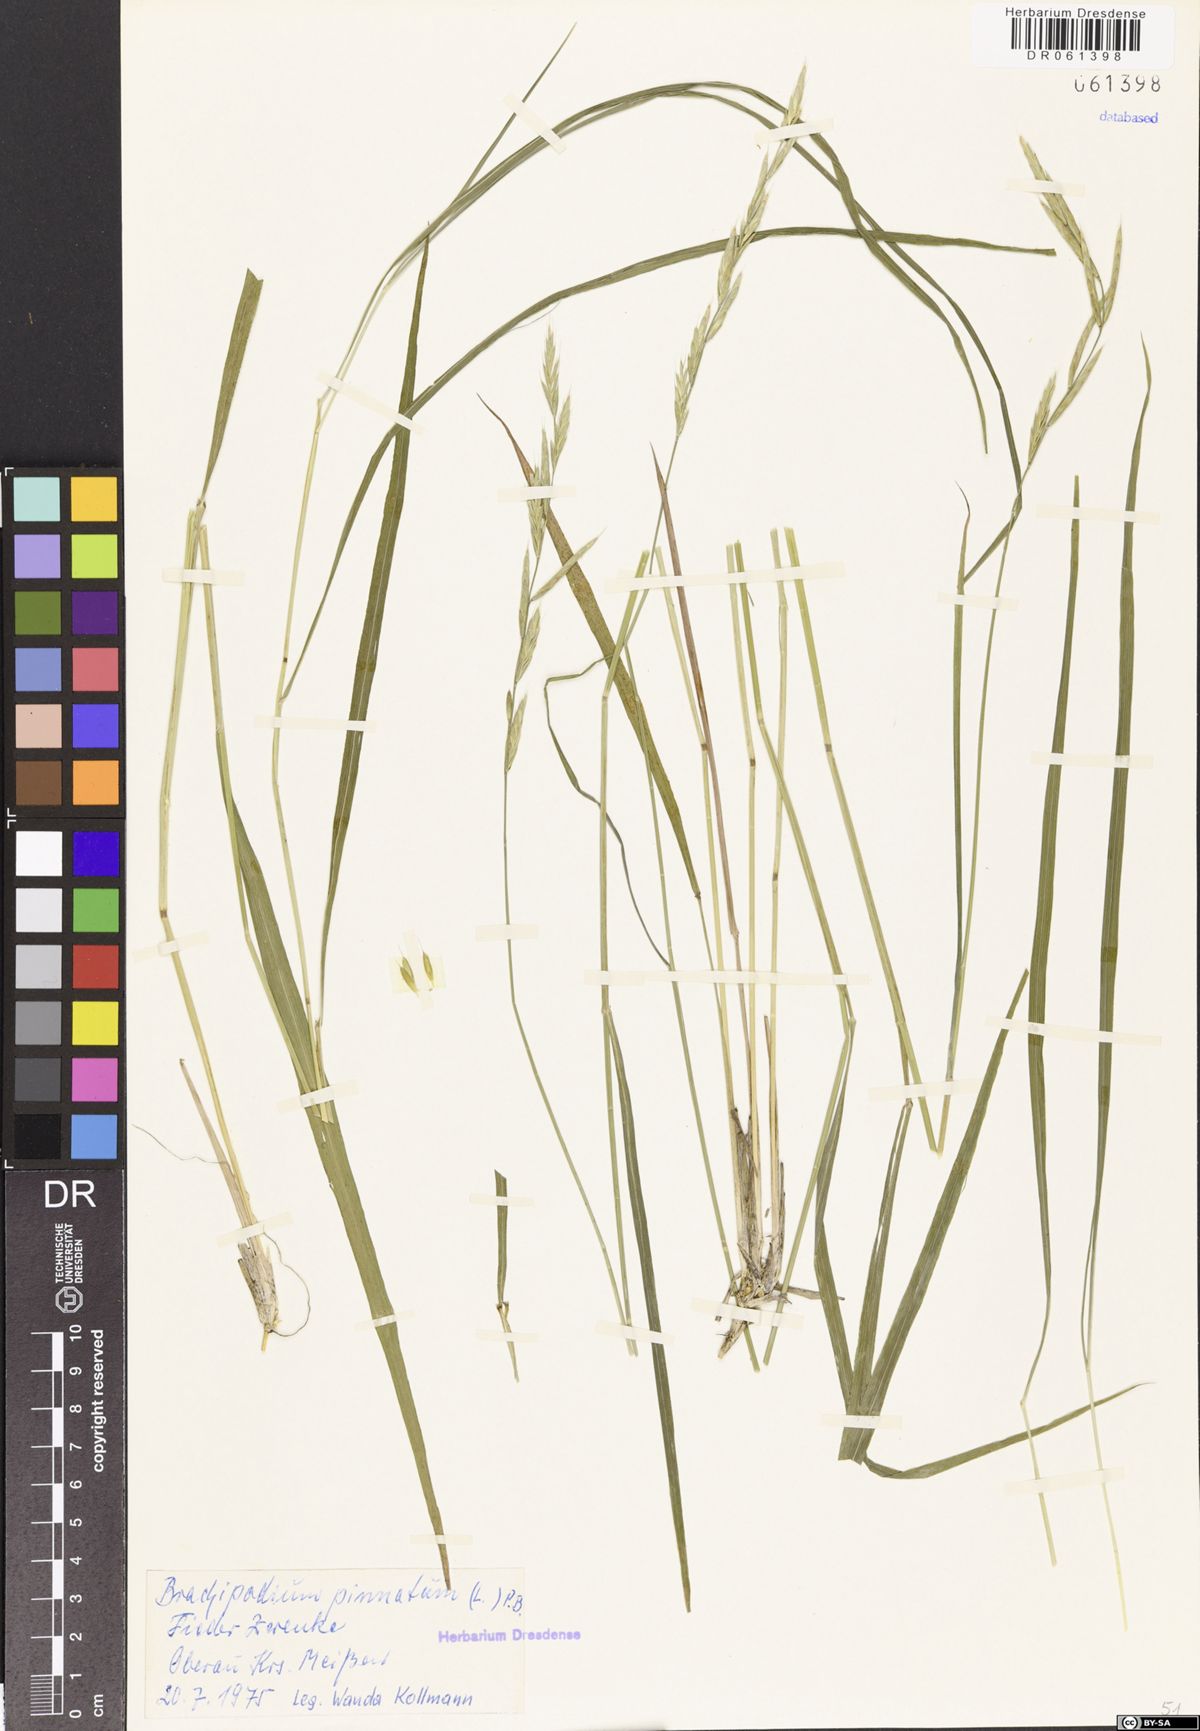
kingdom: Plantae
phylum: Tracheophyta
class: Liliopsida
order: Poales
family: Poaceae
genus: Brachypodium
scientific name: Brachypodium pinnatum
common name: Tor grass
